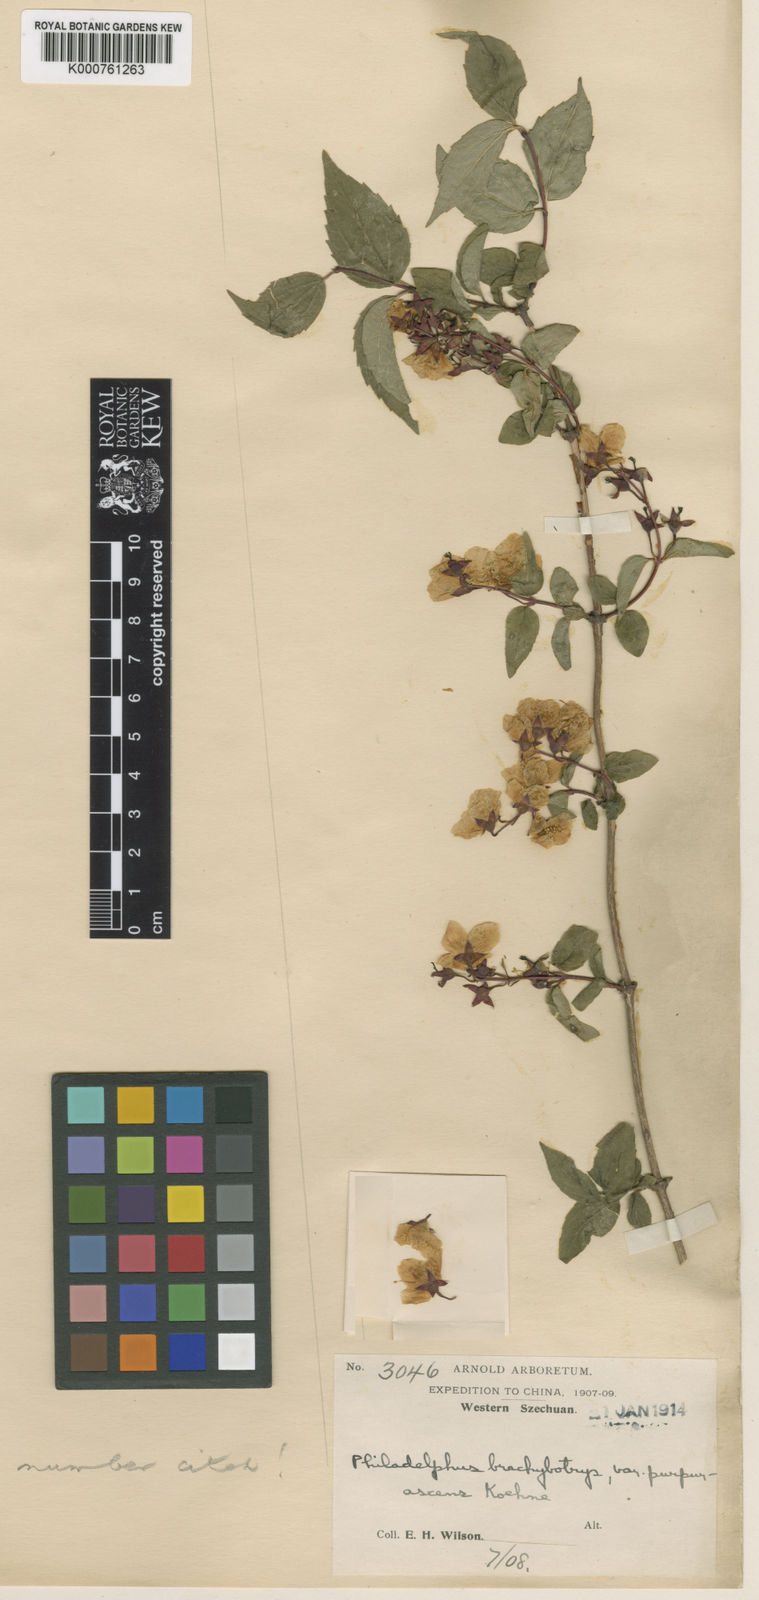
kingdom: Plantae
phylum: Tracheophyta
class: Magnoliopsida
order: Cornales
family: Hydrangeaceae
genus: Philadelphus
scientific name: Philadelphus purpurascens
